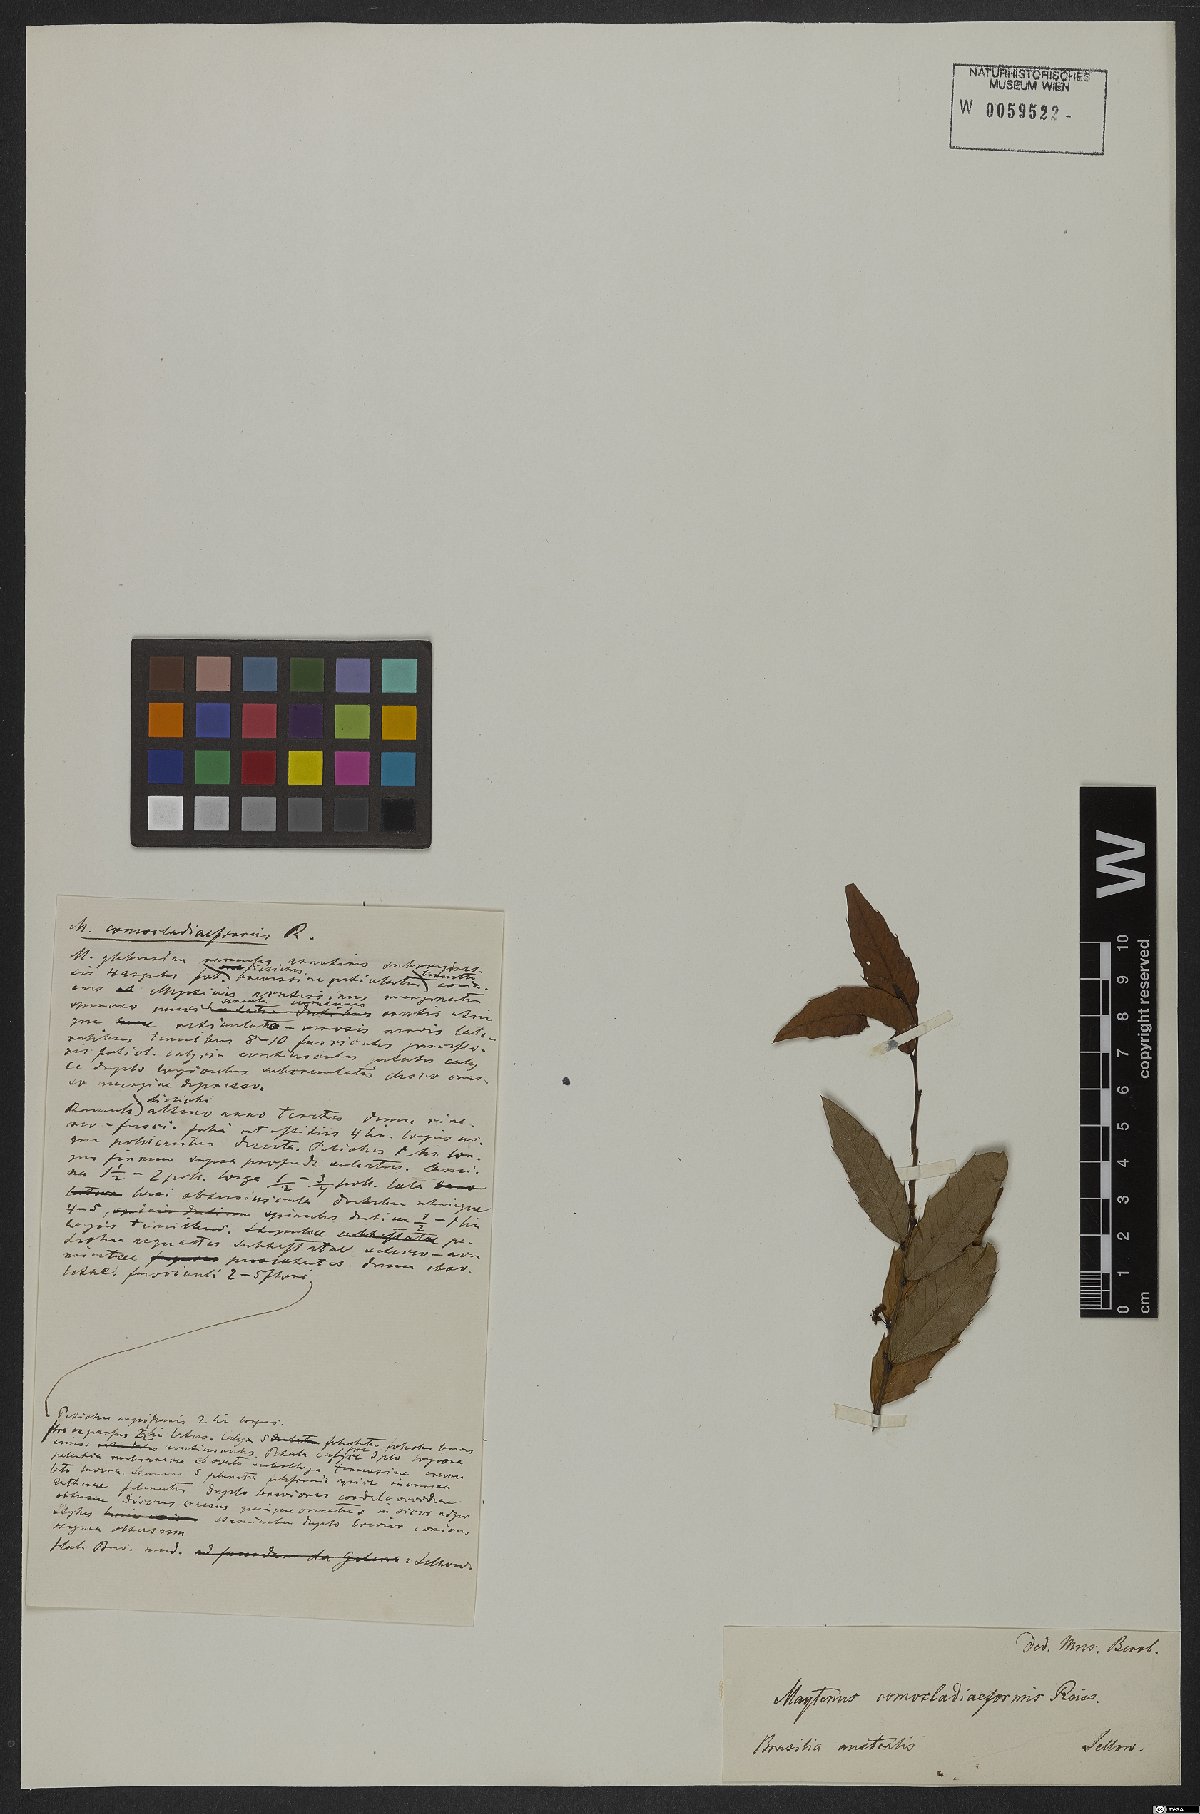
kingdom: Plantae
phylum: Tracheophyta
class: Magnoliopsida
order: Celastrales
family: Celastraceae
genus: Monteverdia
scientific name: Monteverdia comocladiiformis
